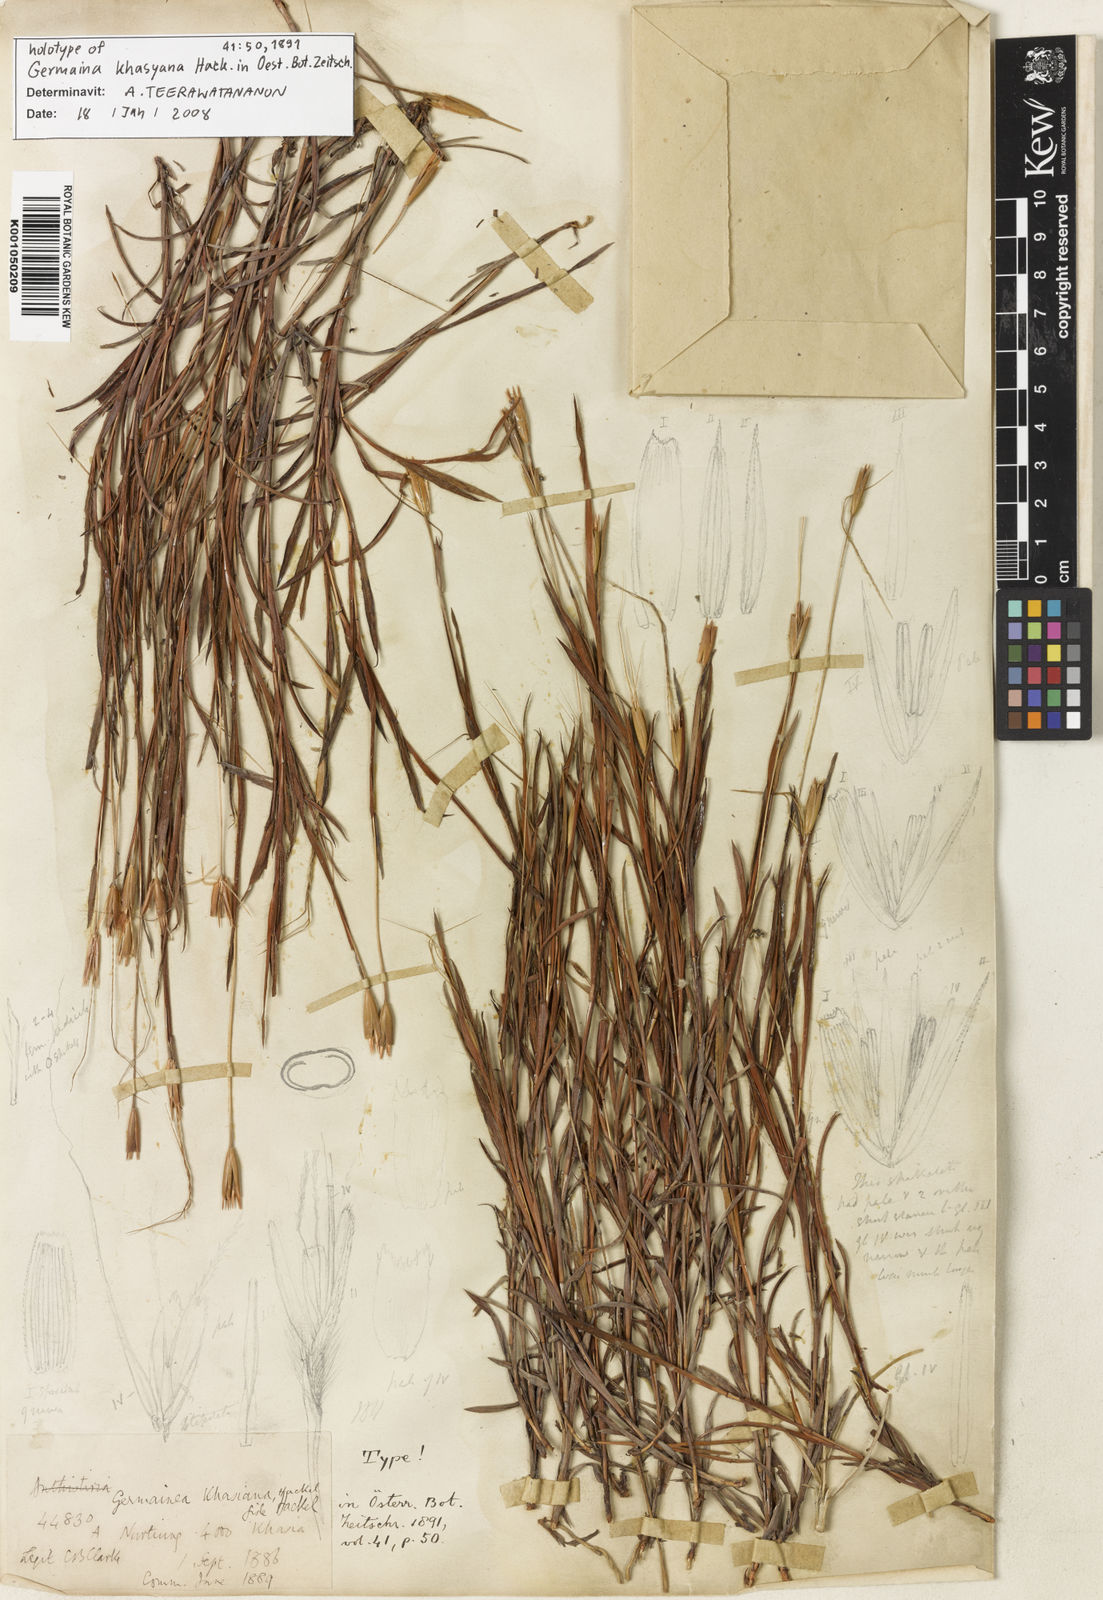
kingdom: Plantae
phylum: Tracheophyta
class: Liliopsida
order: Poales
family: Poaceae
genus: Germainia
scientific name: Germainia khasyana
